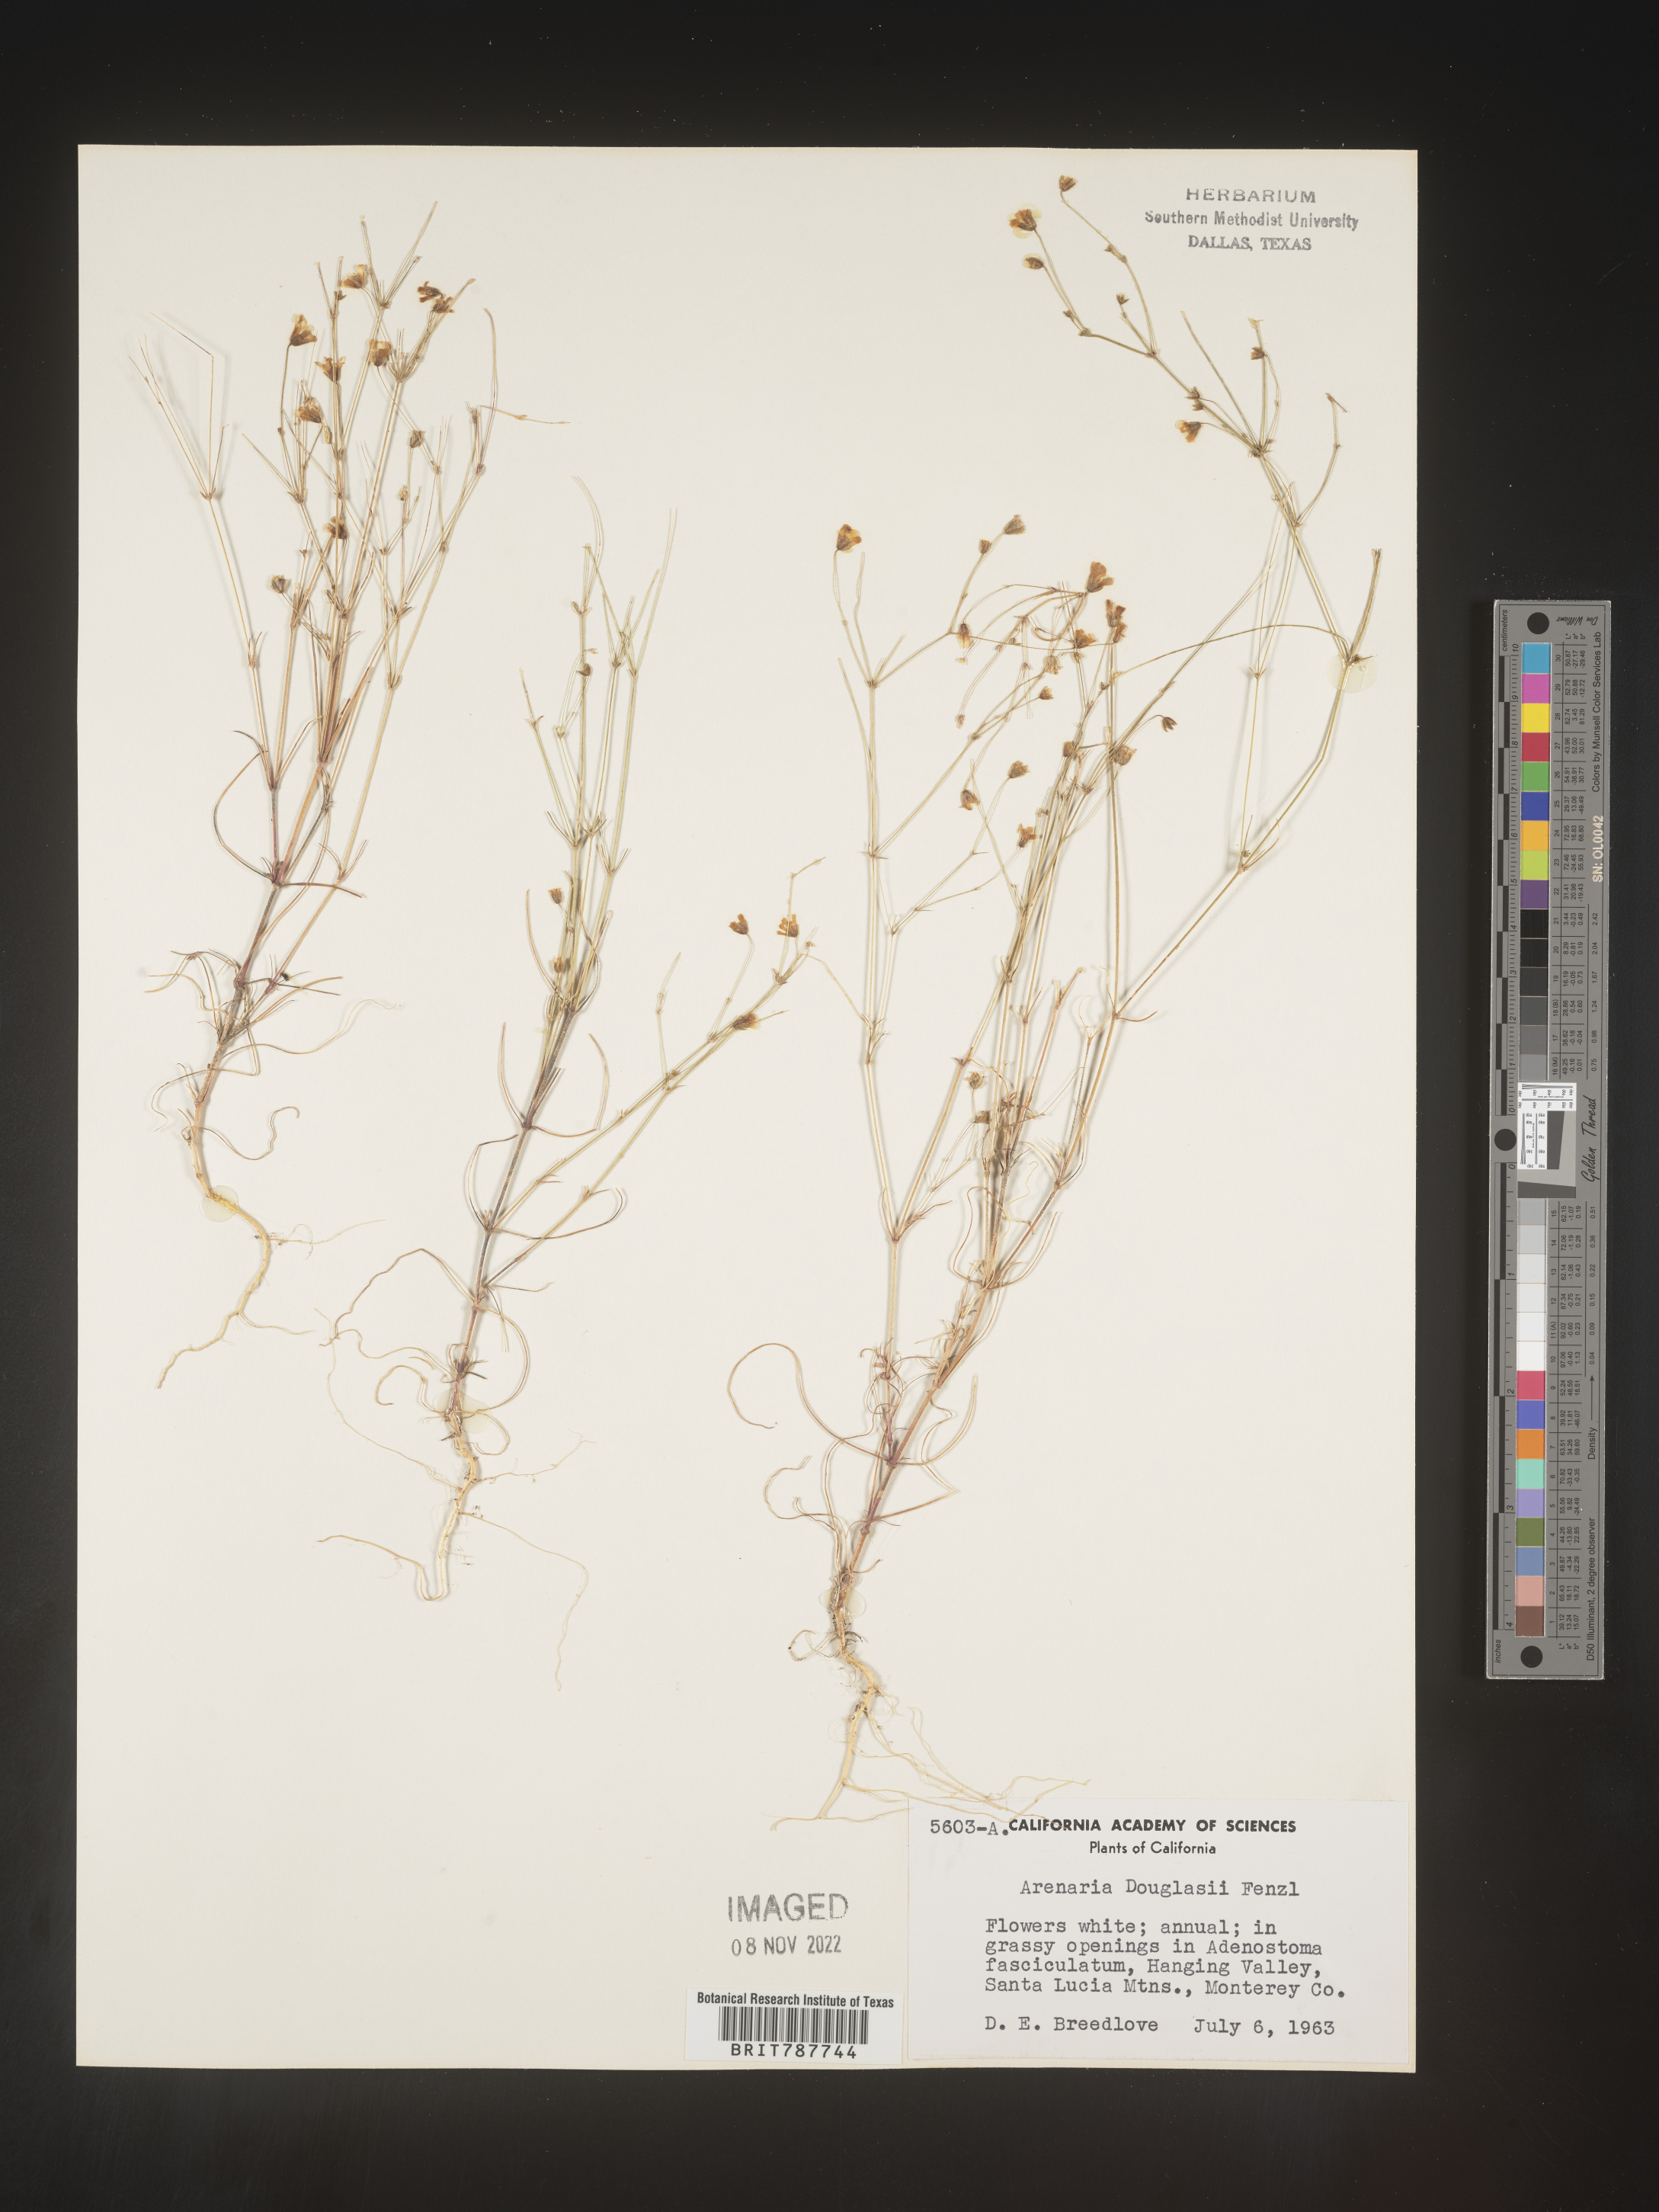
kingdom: Plantae
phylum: Tracheophyta
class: Magnoliopsida
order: Caryophyllales
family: Caryophyllaceae
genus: Arenaria
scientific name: Arenaria
